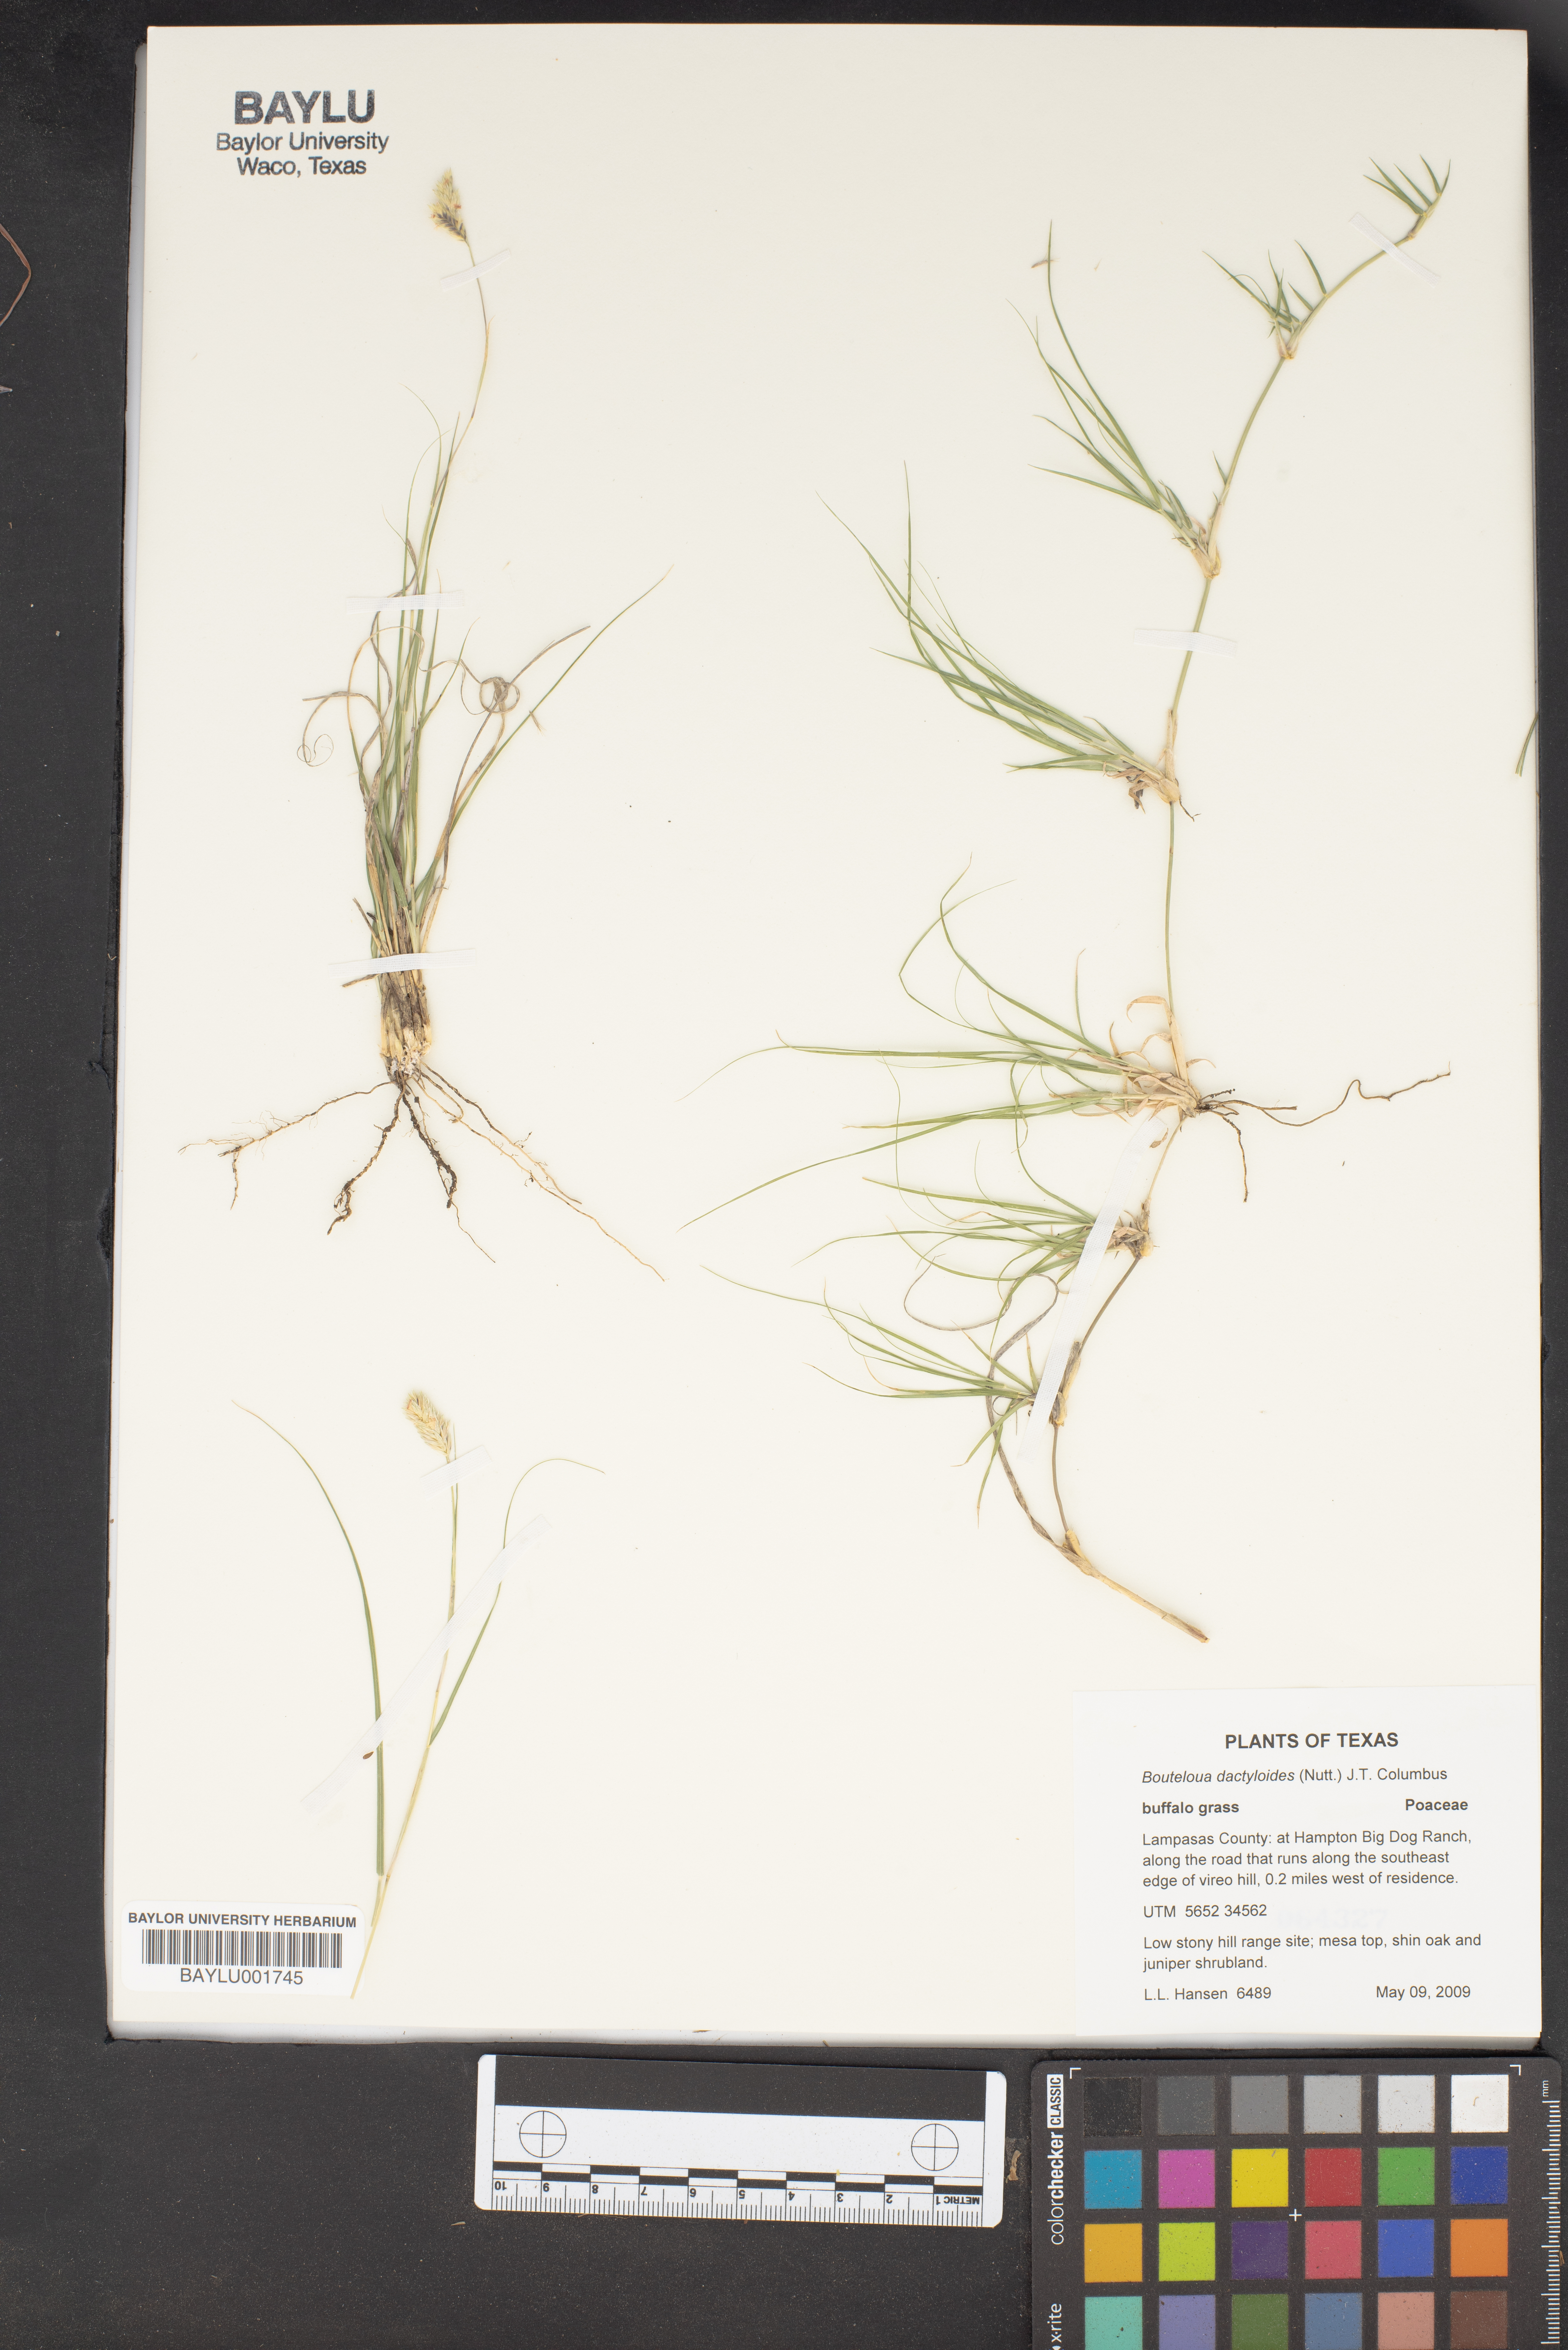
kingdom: Plantae
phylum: Tracheophyta
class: Liliopsida
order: Poales
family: Poaceae
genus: Bouteloua
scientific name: Bouteloua dactyloides
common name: Buffalo grass
